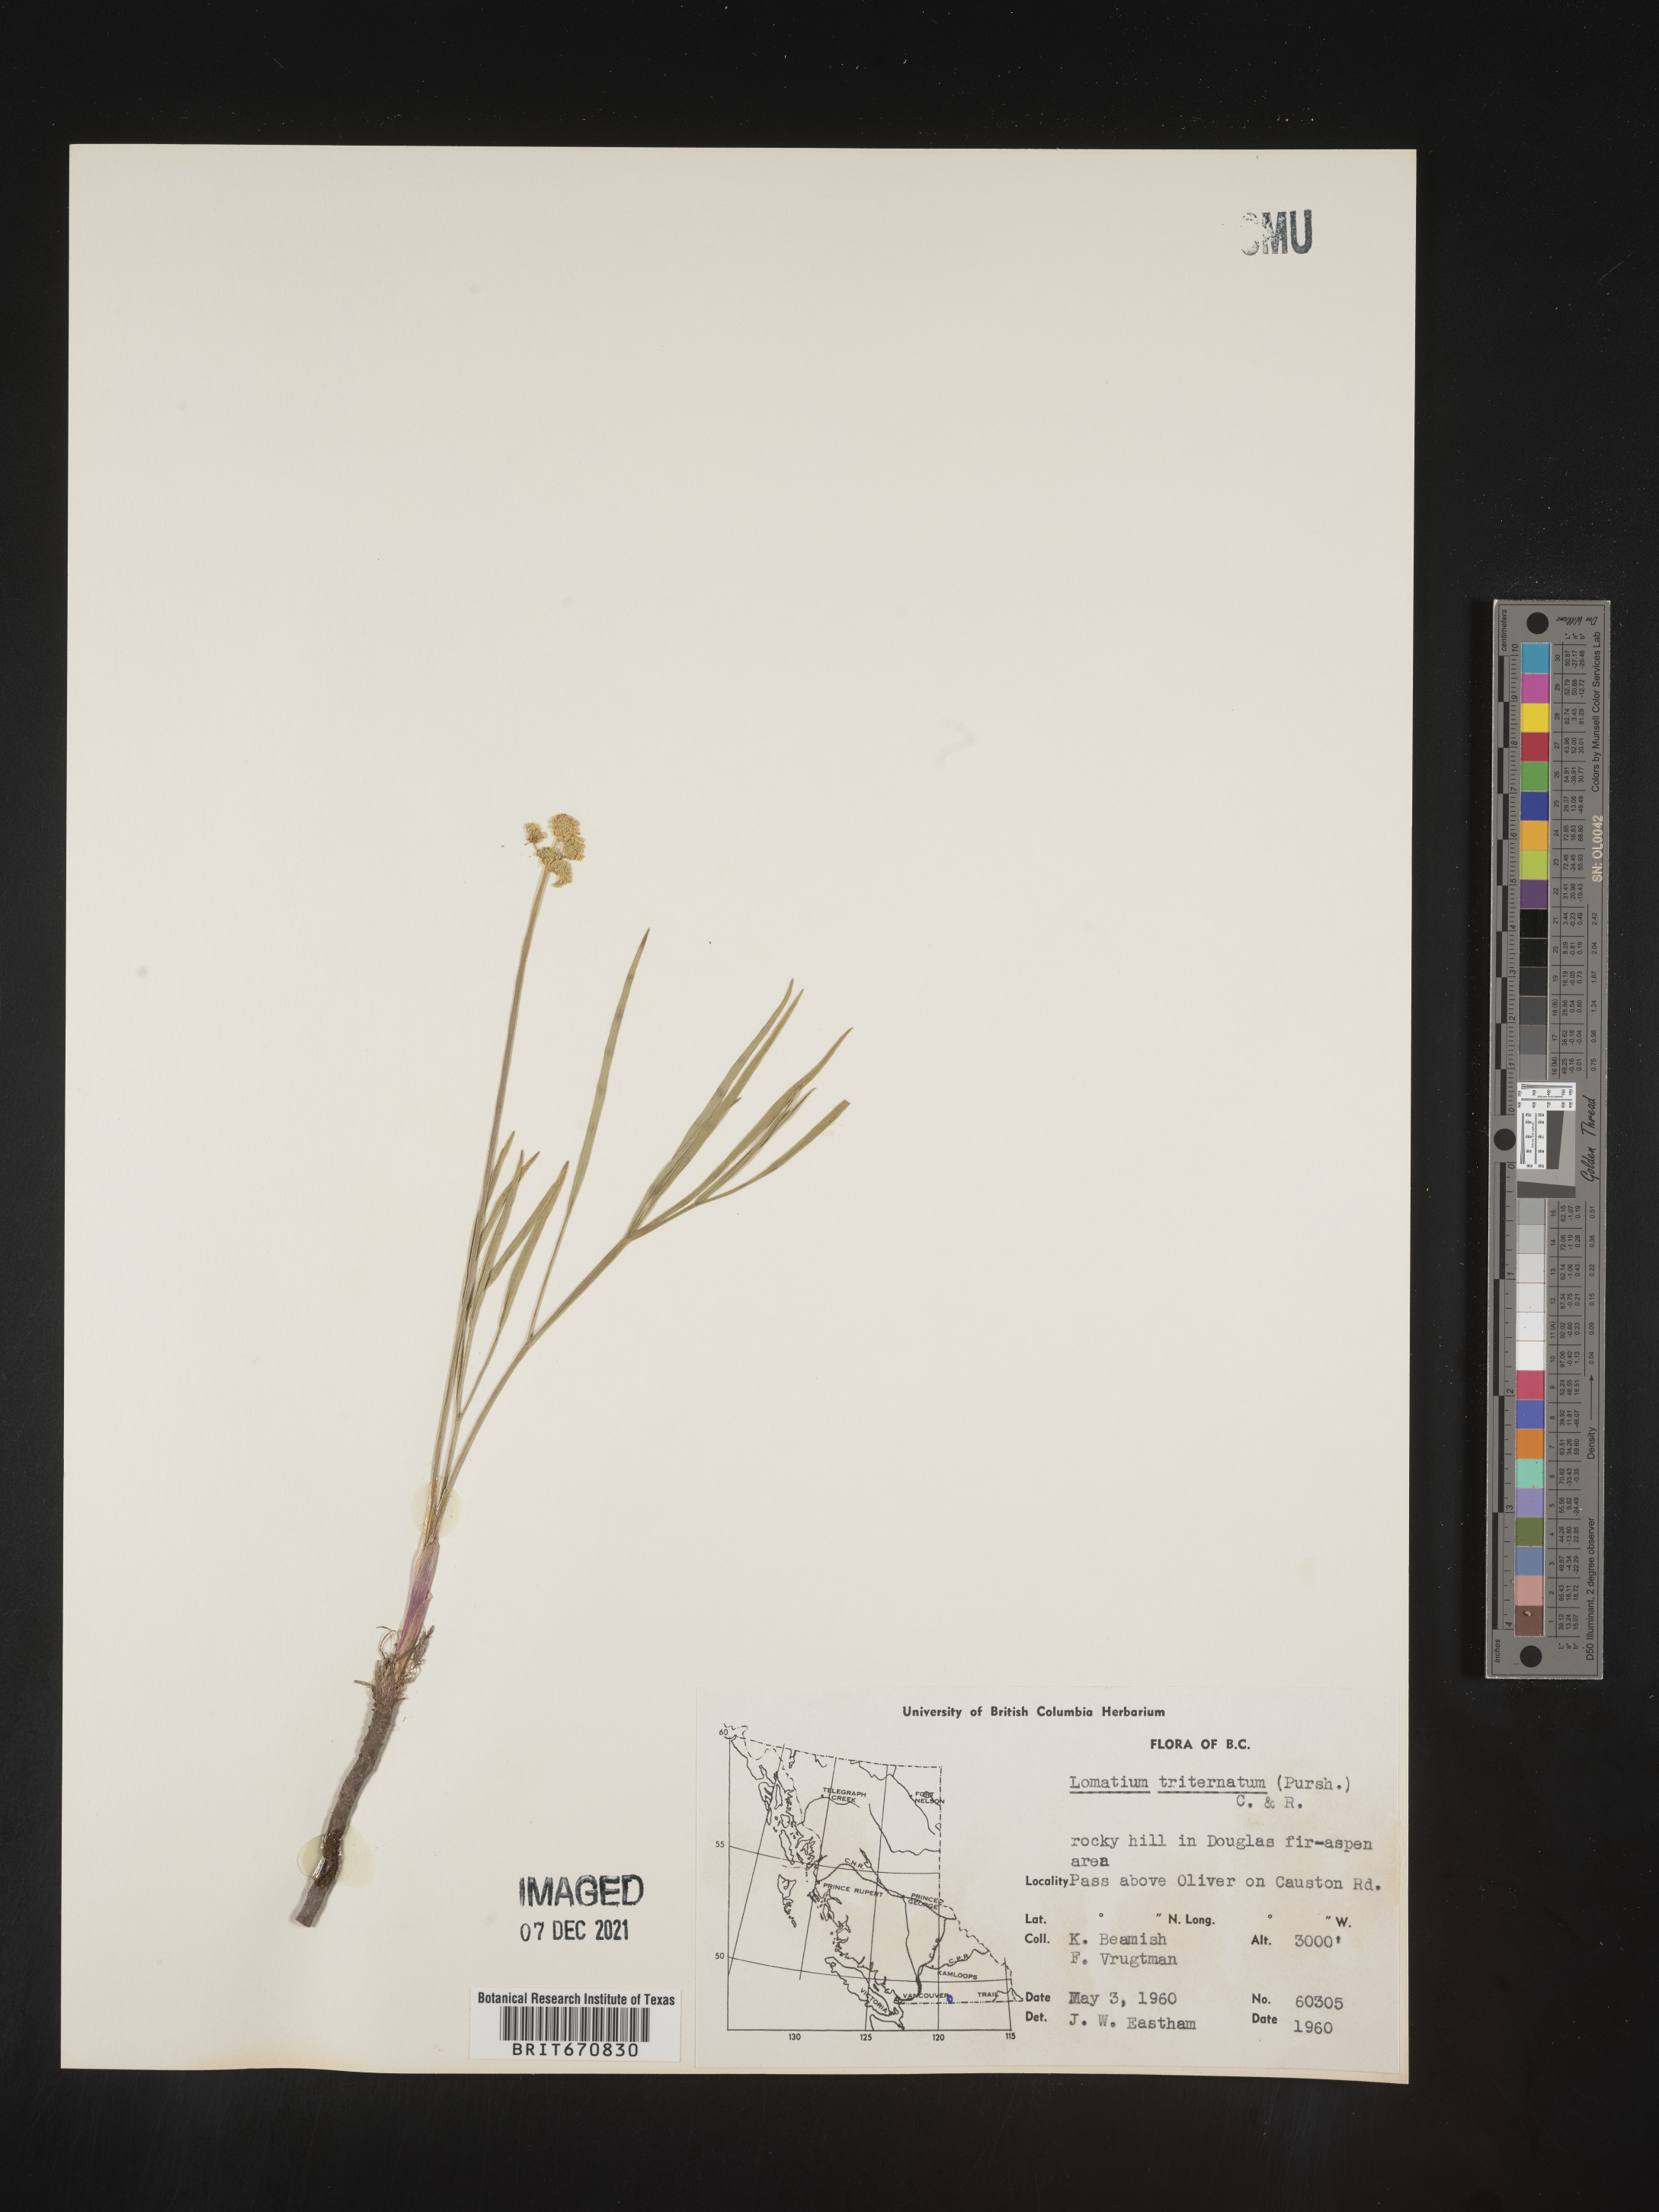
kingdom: Plantae
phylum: Tracheophyta
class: Magnoliopsida
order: Apiales
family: Apiaceae
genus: Lomatium
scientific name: Lomatium triternatum
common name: Ternate lomatium
